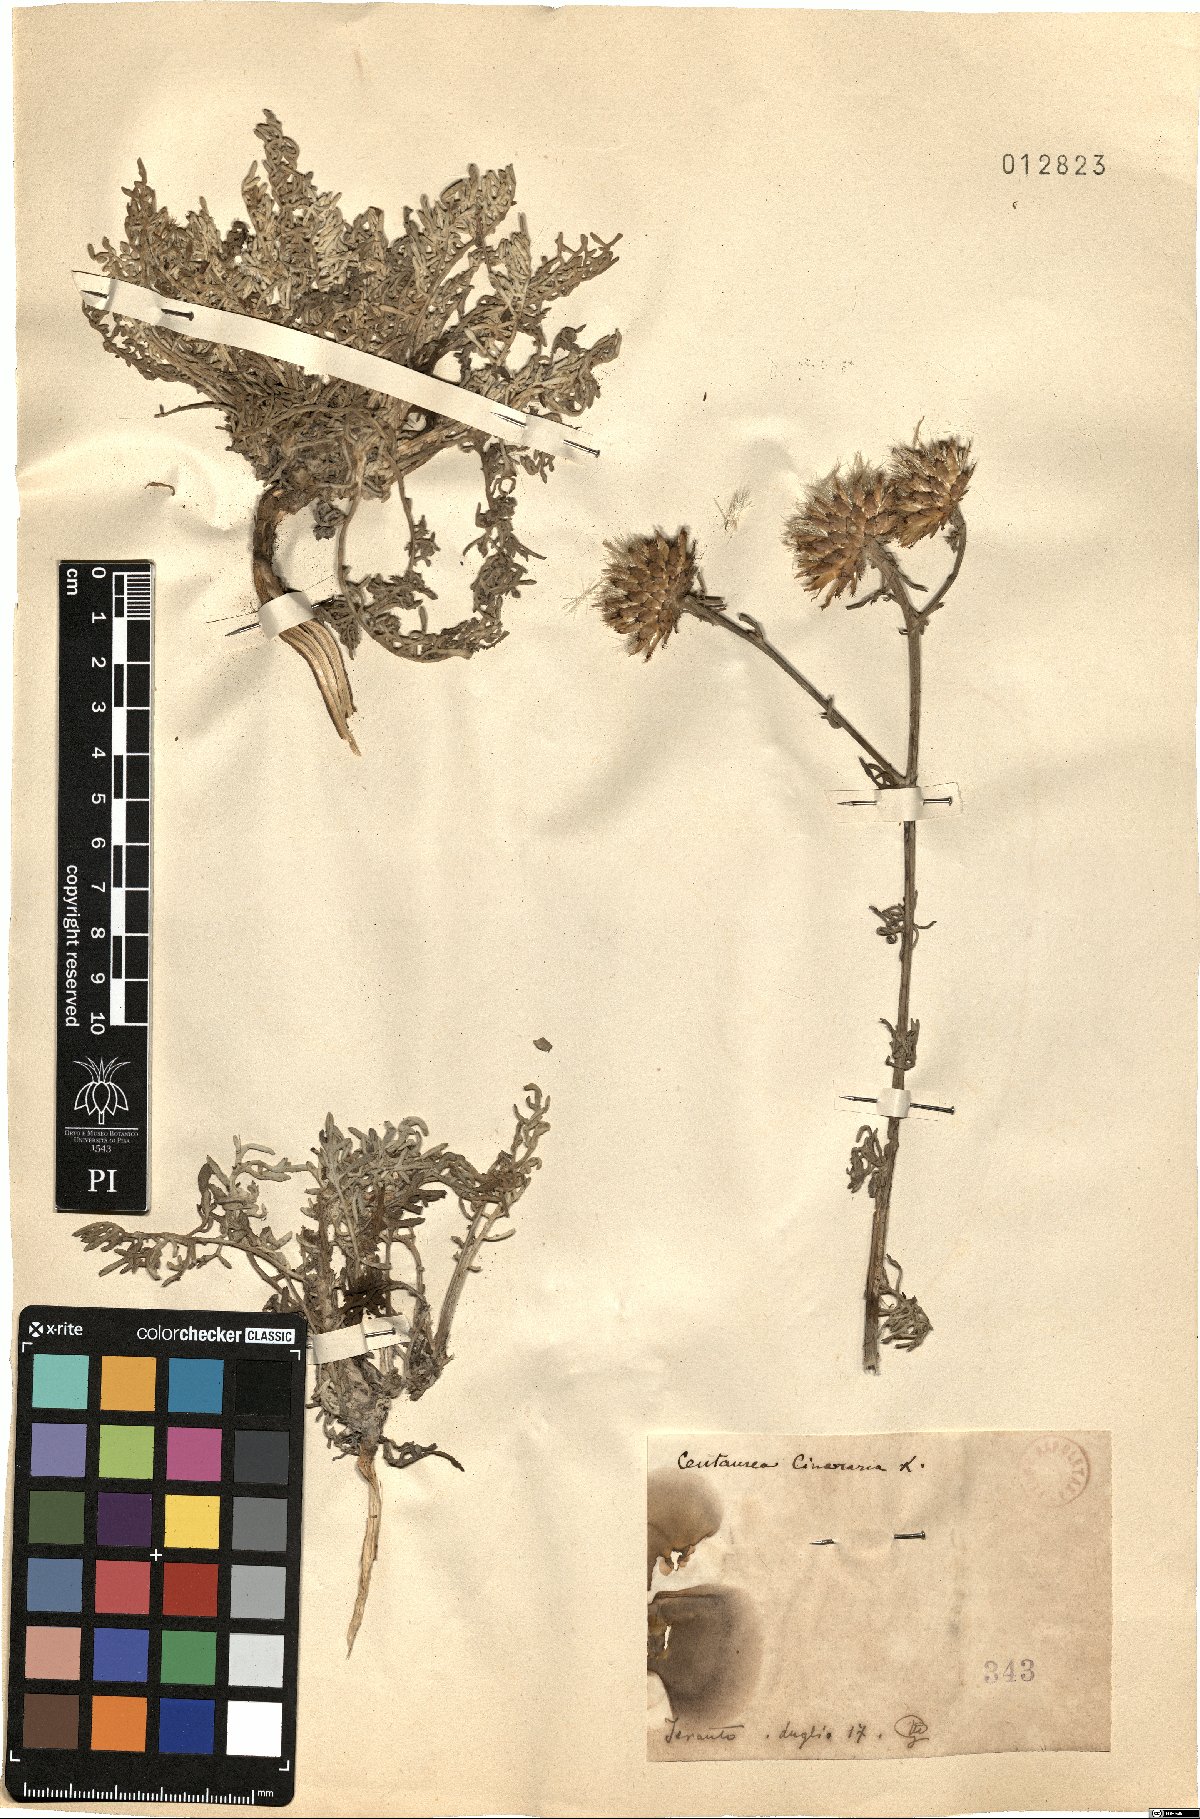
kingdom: Plantae
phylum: Tracheophyta
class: Magnoliopsida
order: Asterales
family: Asteraceae
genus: Centaurea
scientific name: Centaurea cineraria
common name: Dusty miller
